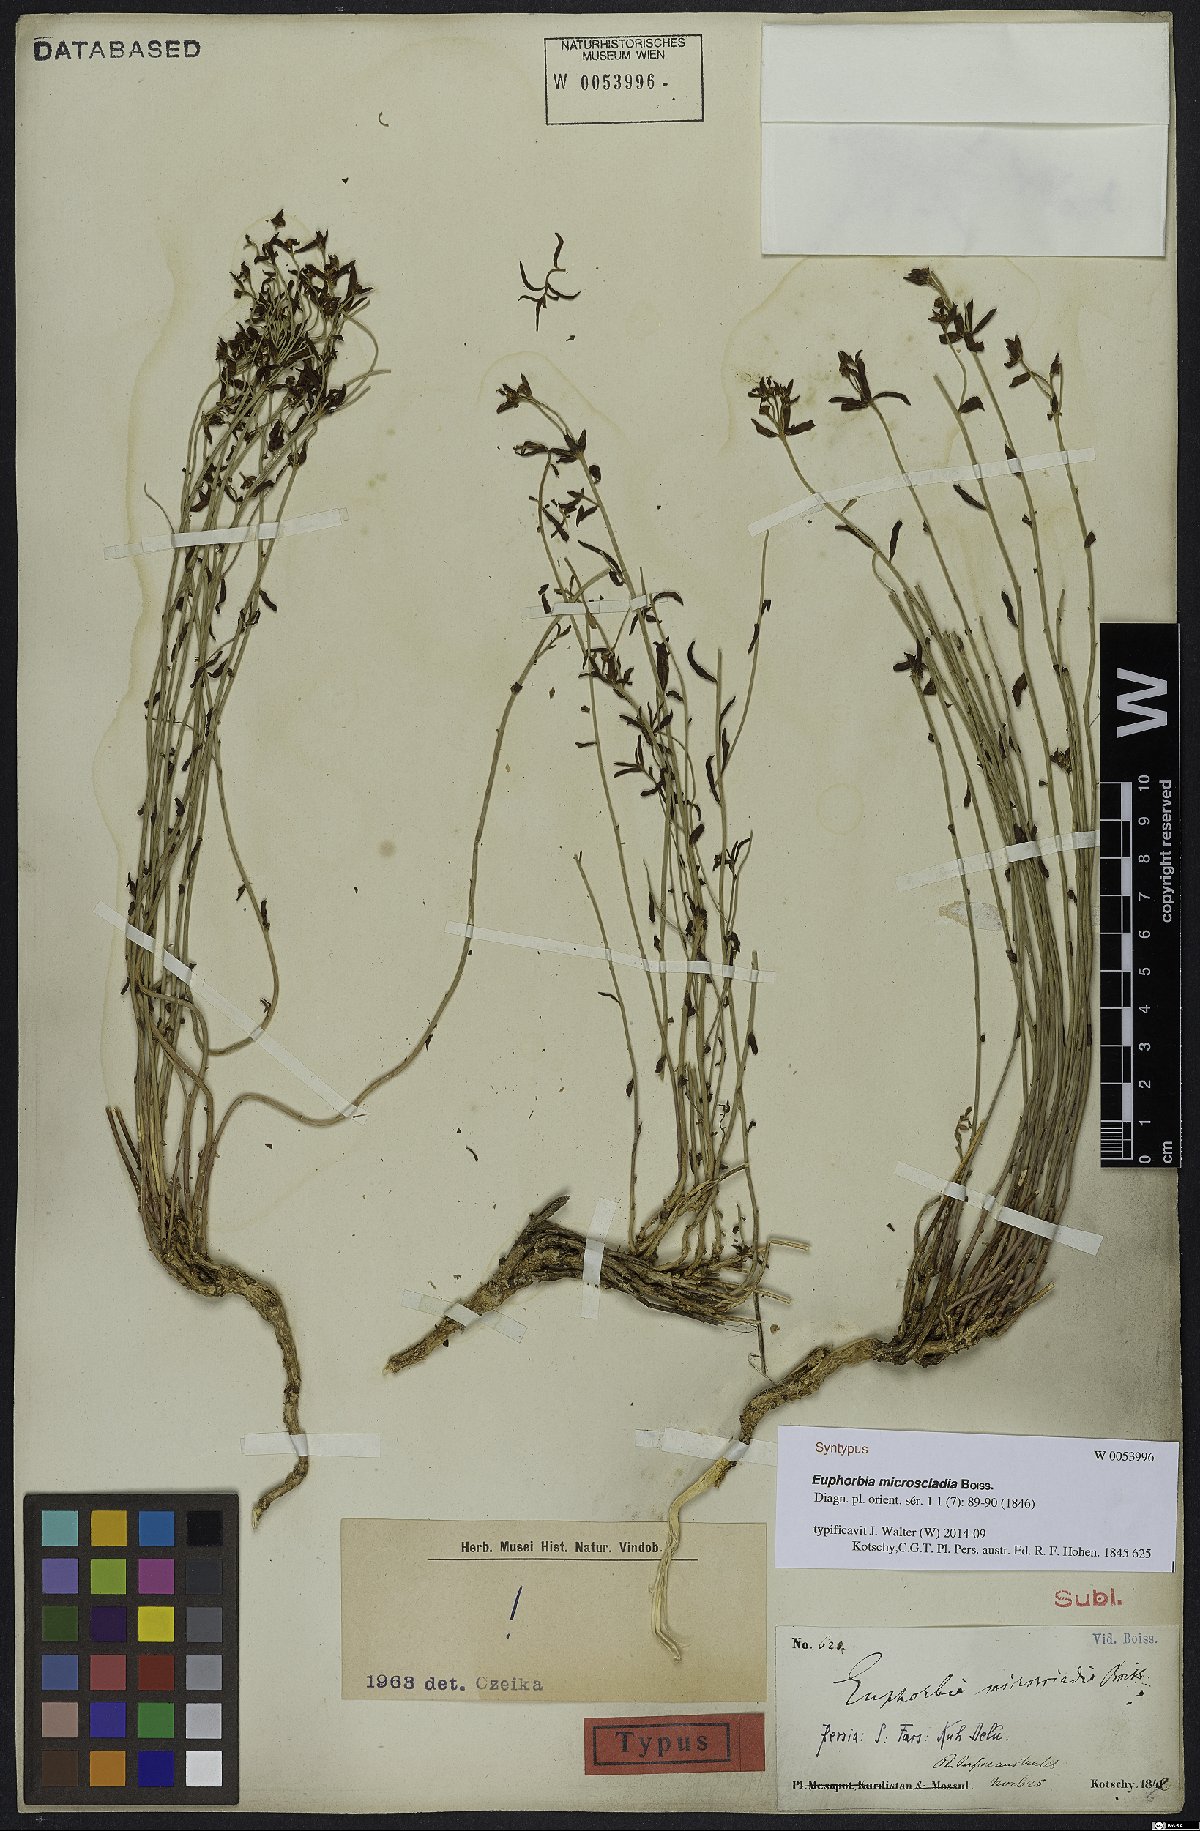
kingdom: Plantae
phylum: Tracheophyta
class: Magnoliopsida
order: Malpighiales
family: Euphorbiaceae
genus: Euphorbia
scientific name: Euphorbia microsciadia
